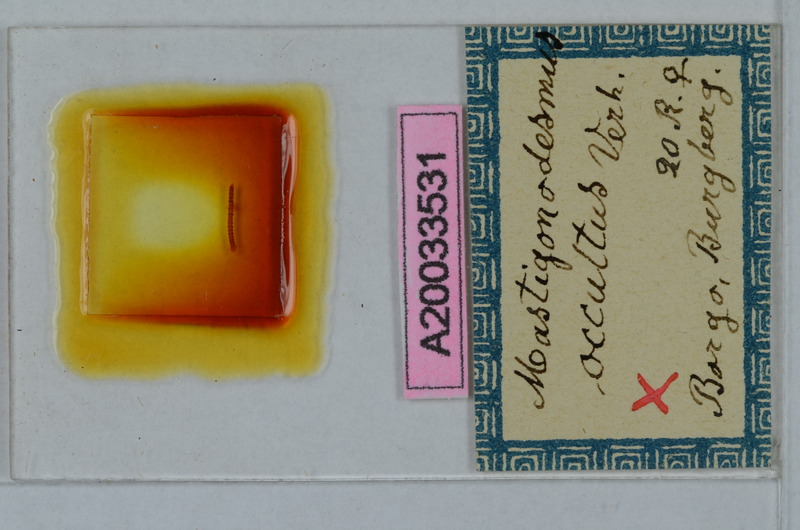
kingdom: Animalia
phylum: Arthropoda
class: Diplopoda
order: Polydesmida
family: Polydesmidae
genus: Mastigonodesmus
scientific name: Mastigonodesmus occultus
